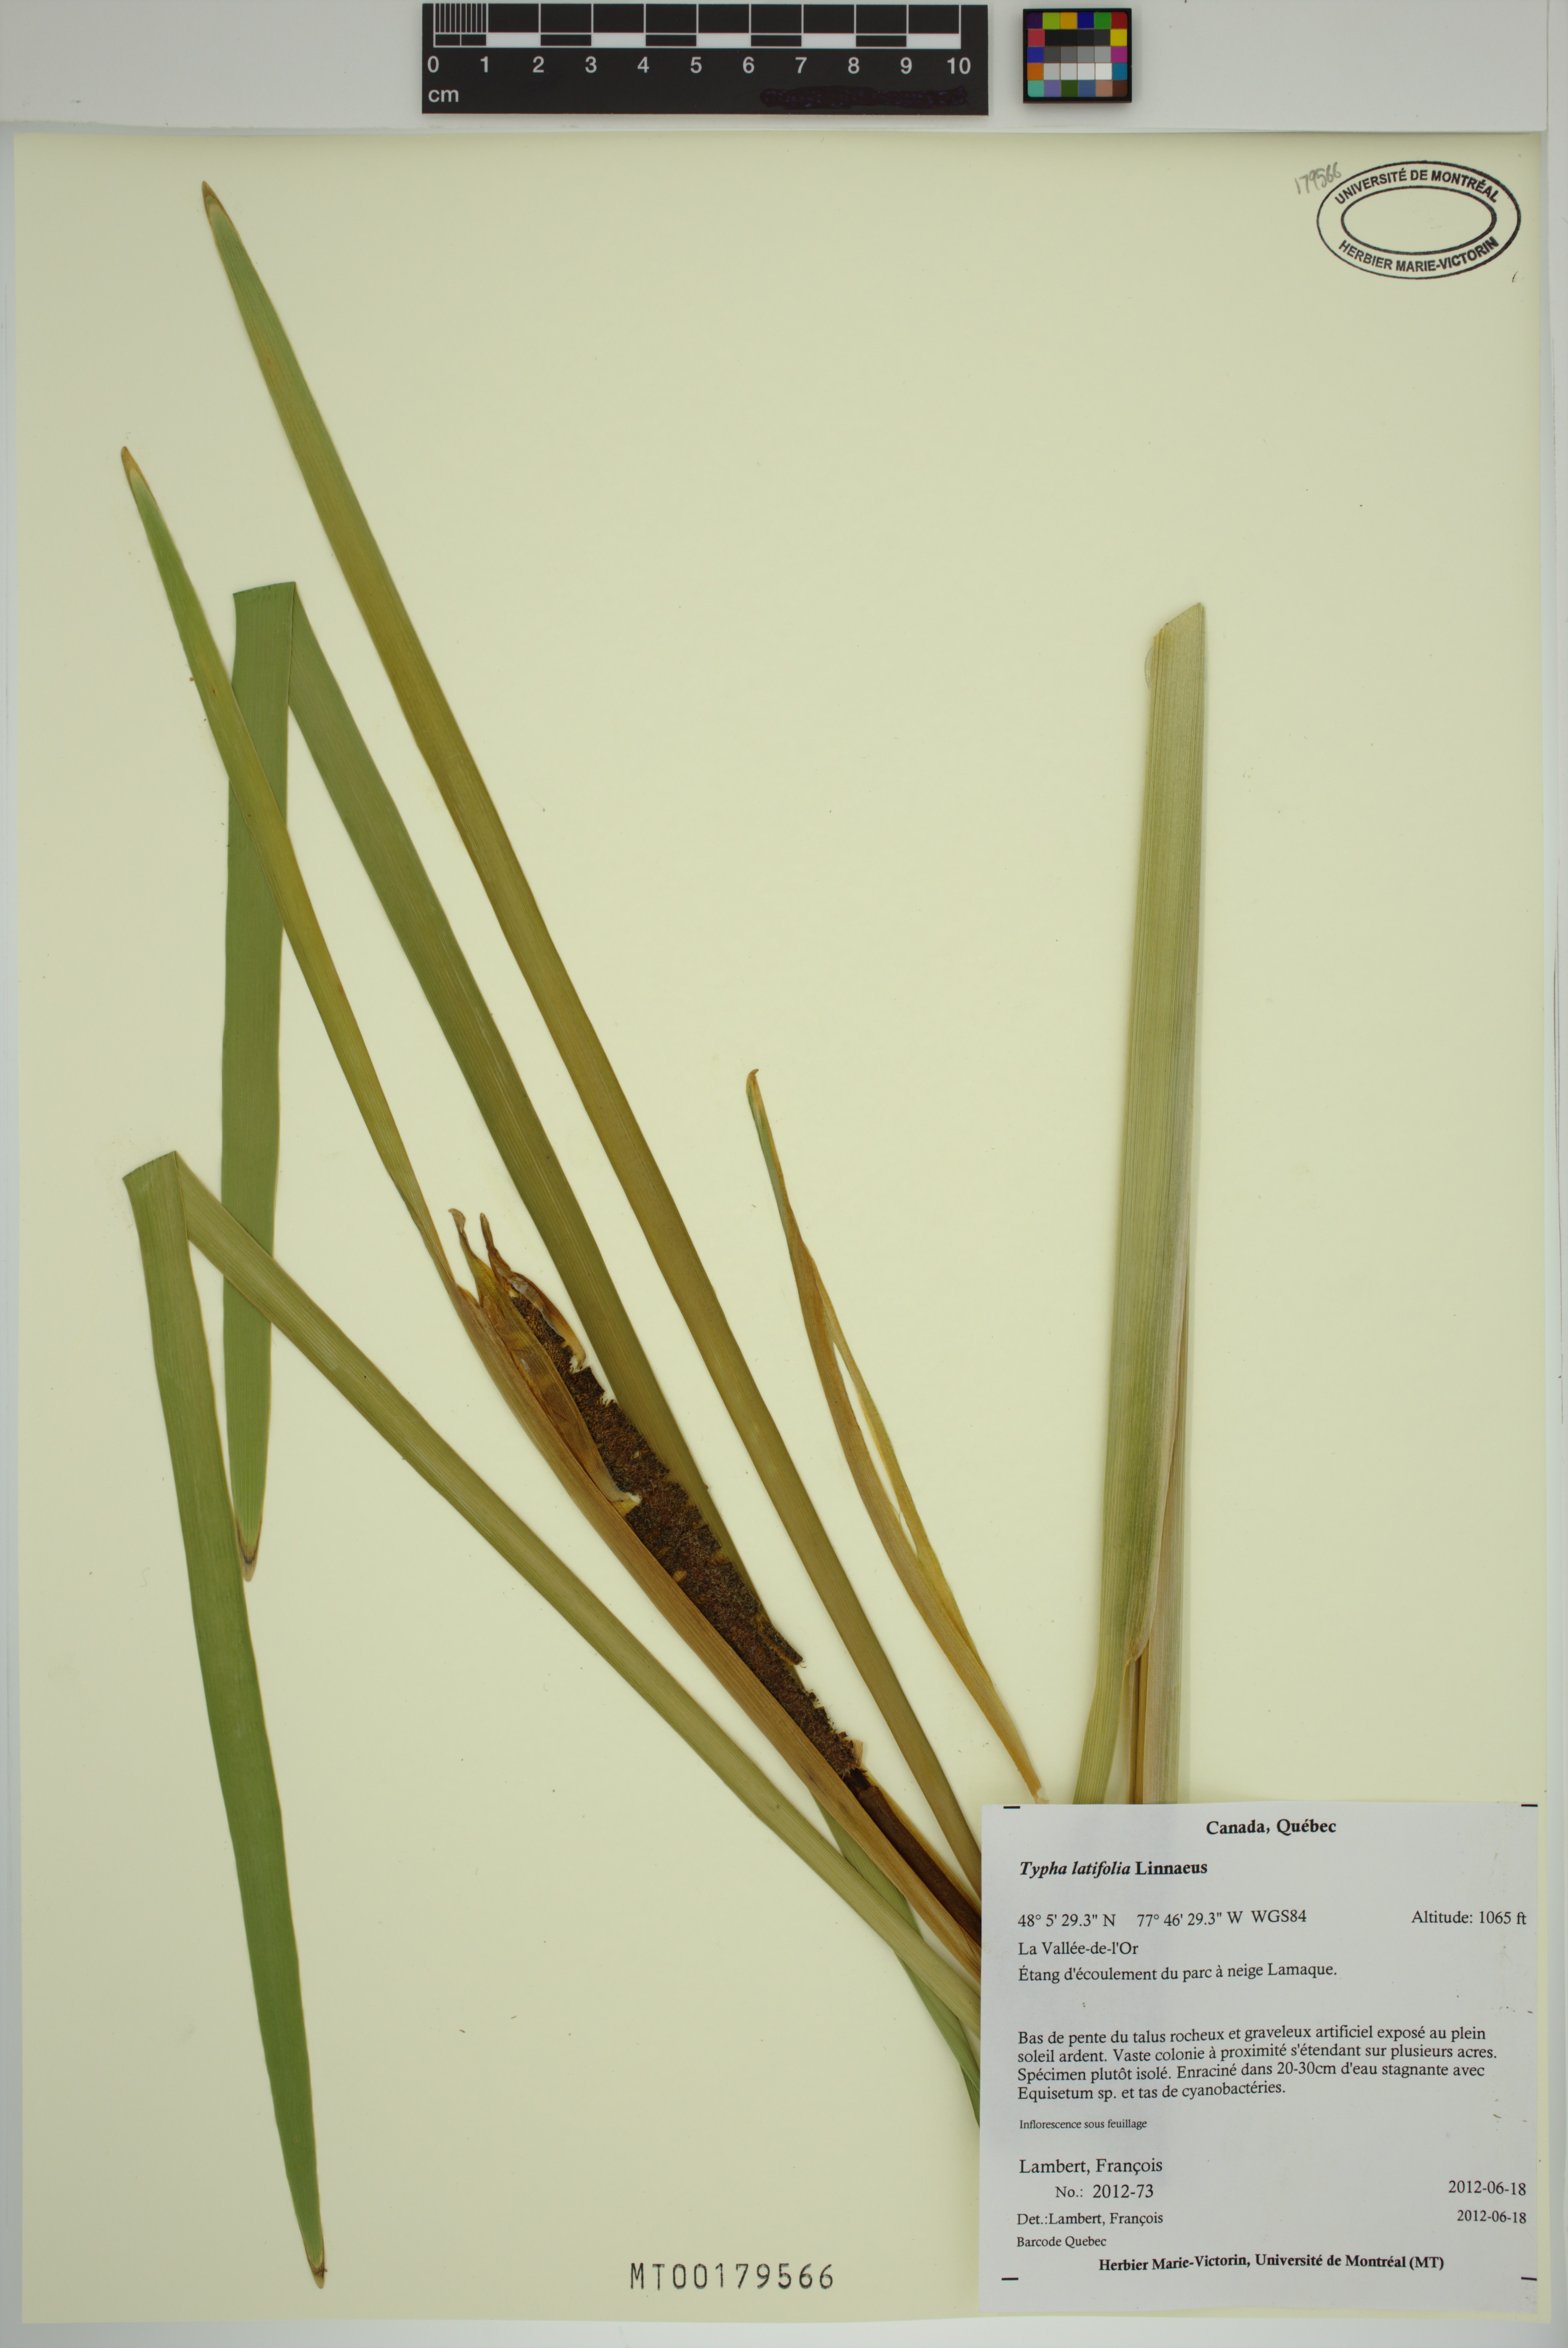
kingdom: Plantae
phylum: Tracheophyta
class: Liliopsida
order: Poales
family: Typhaceae
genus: Typha
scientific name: Typha latifolia
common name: Broadleaf cattail
